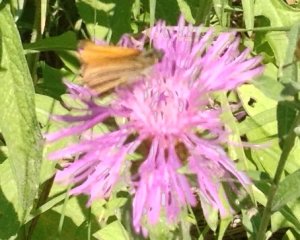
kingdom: Animalia
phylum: Arthropoda
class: Insecta
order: Lepidoptera
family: Hesperiidae
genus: Thymelicus
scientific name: Thymelicus lineola
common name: European Skipper
